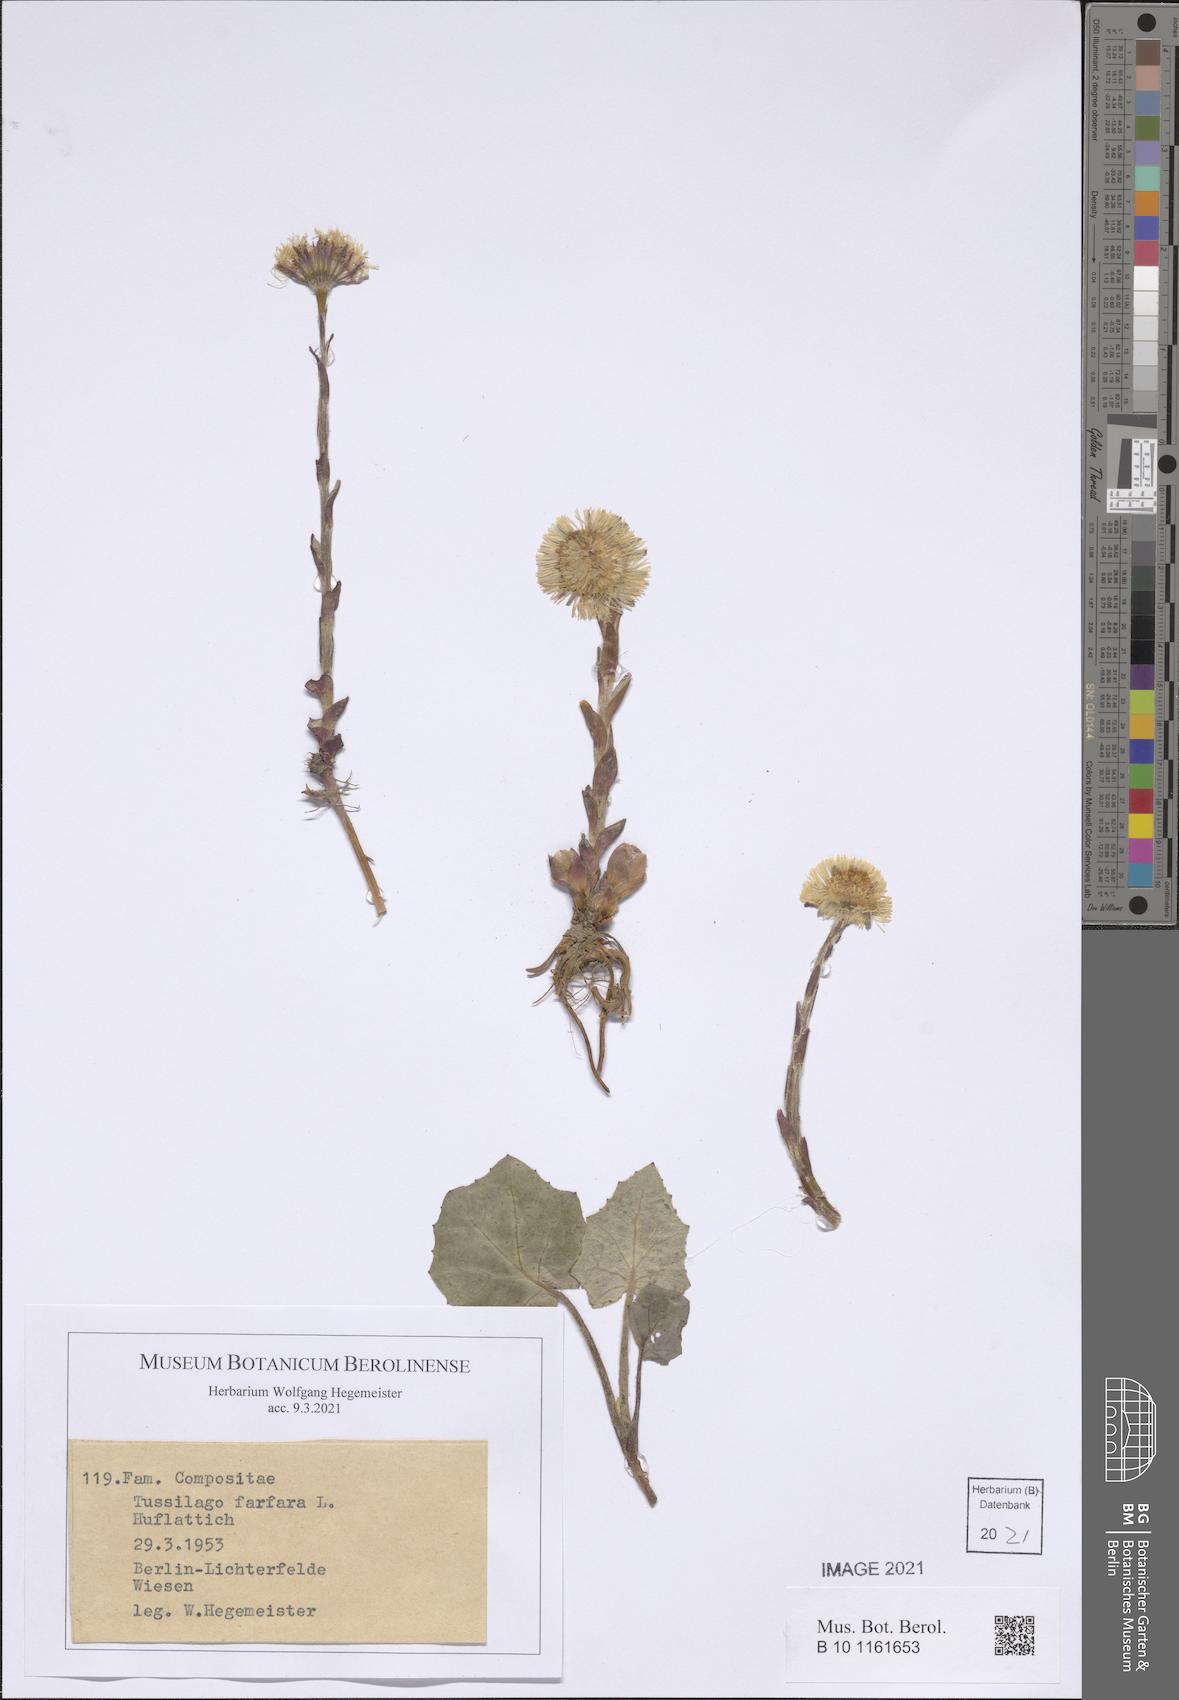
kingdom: Plantae
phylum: Tracheophyta
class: Magnoliopsida
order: Asterales
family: Asteraceae
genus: Tussilago
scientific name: Tussilago farfara
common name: Coltsfoot
